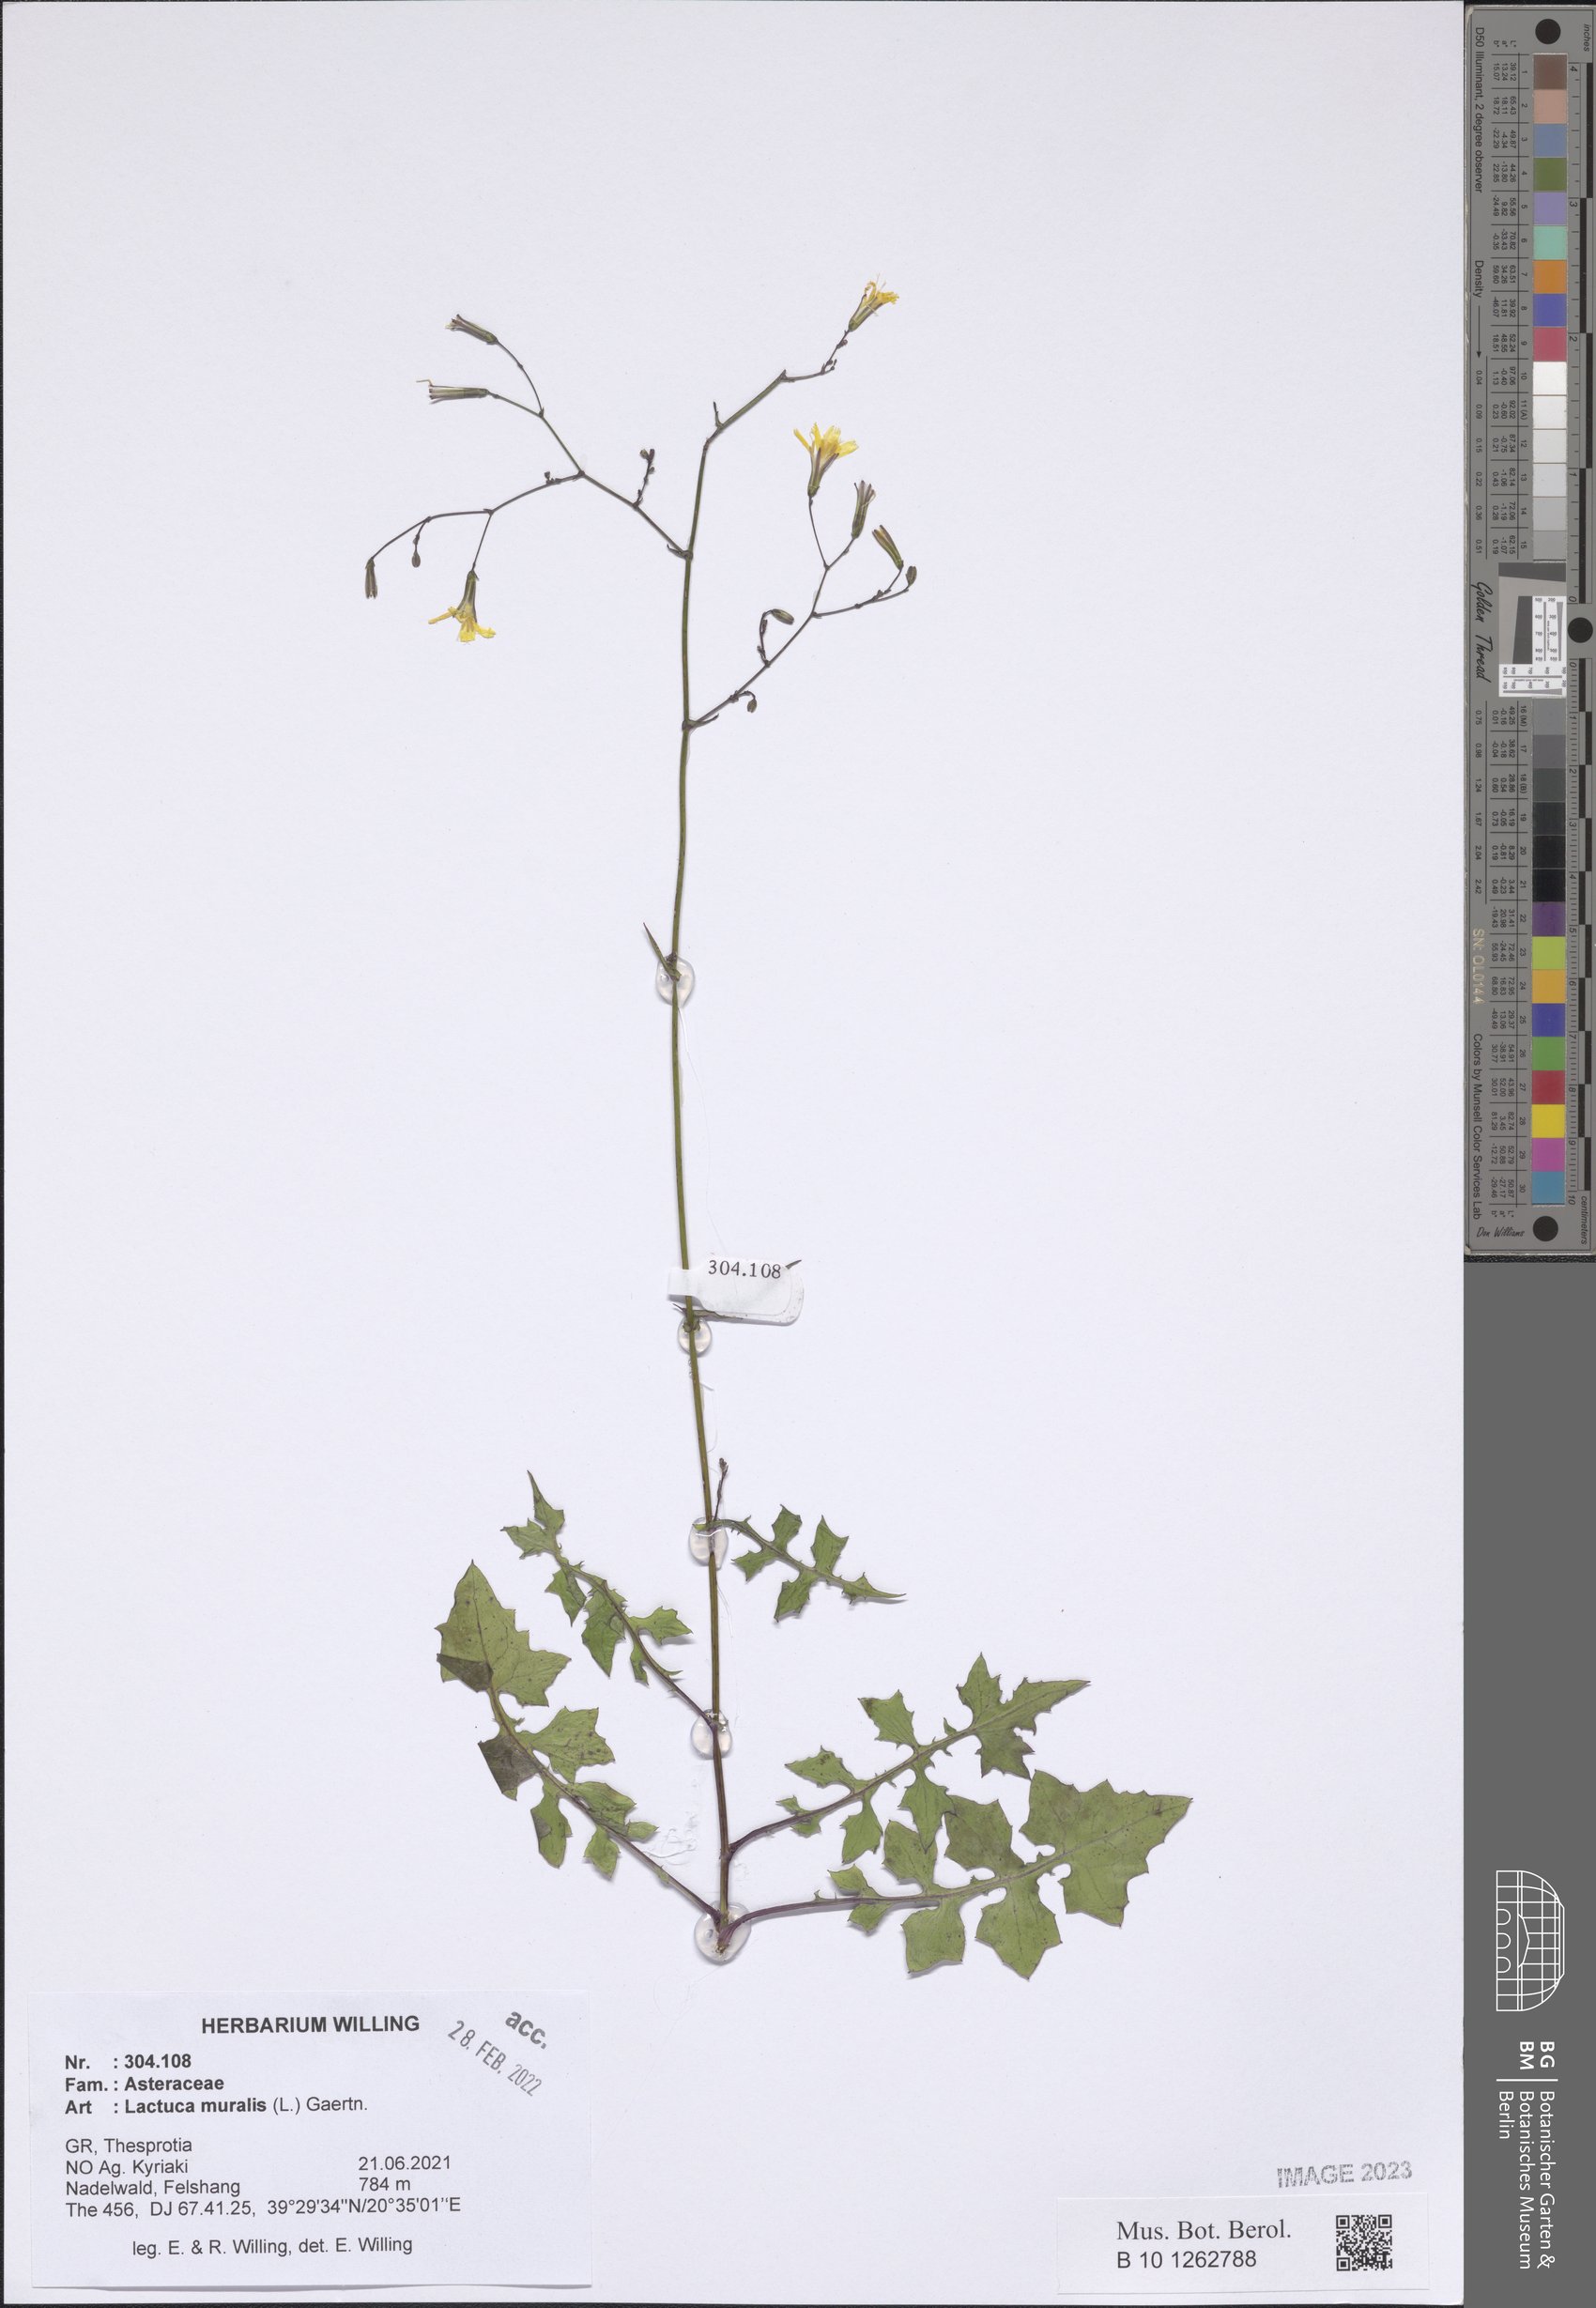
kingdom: Plantae
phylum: Tracheophyta
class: Magnoliopsida
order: Asterales
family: Asteraceae
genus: Mycelis
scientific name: Mycelis muralis
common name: Wall lettuce
